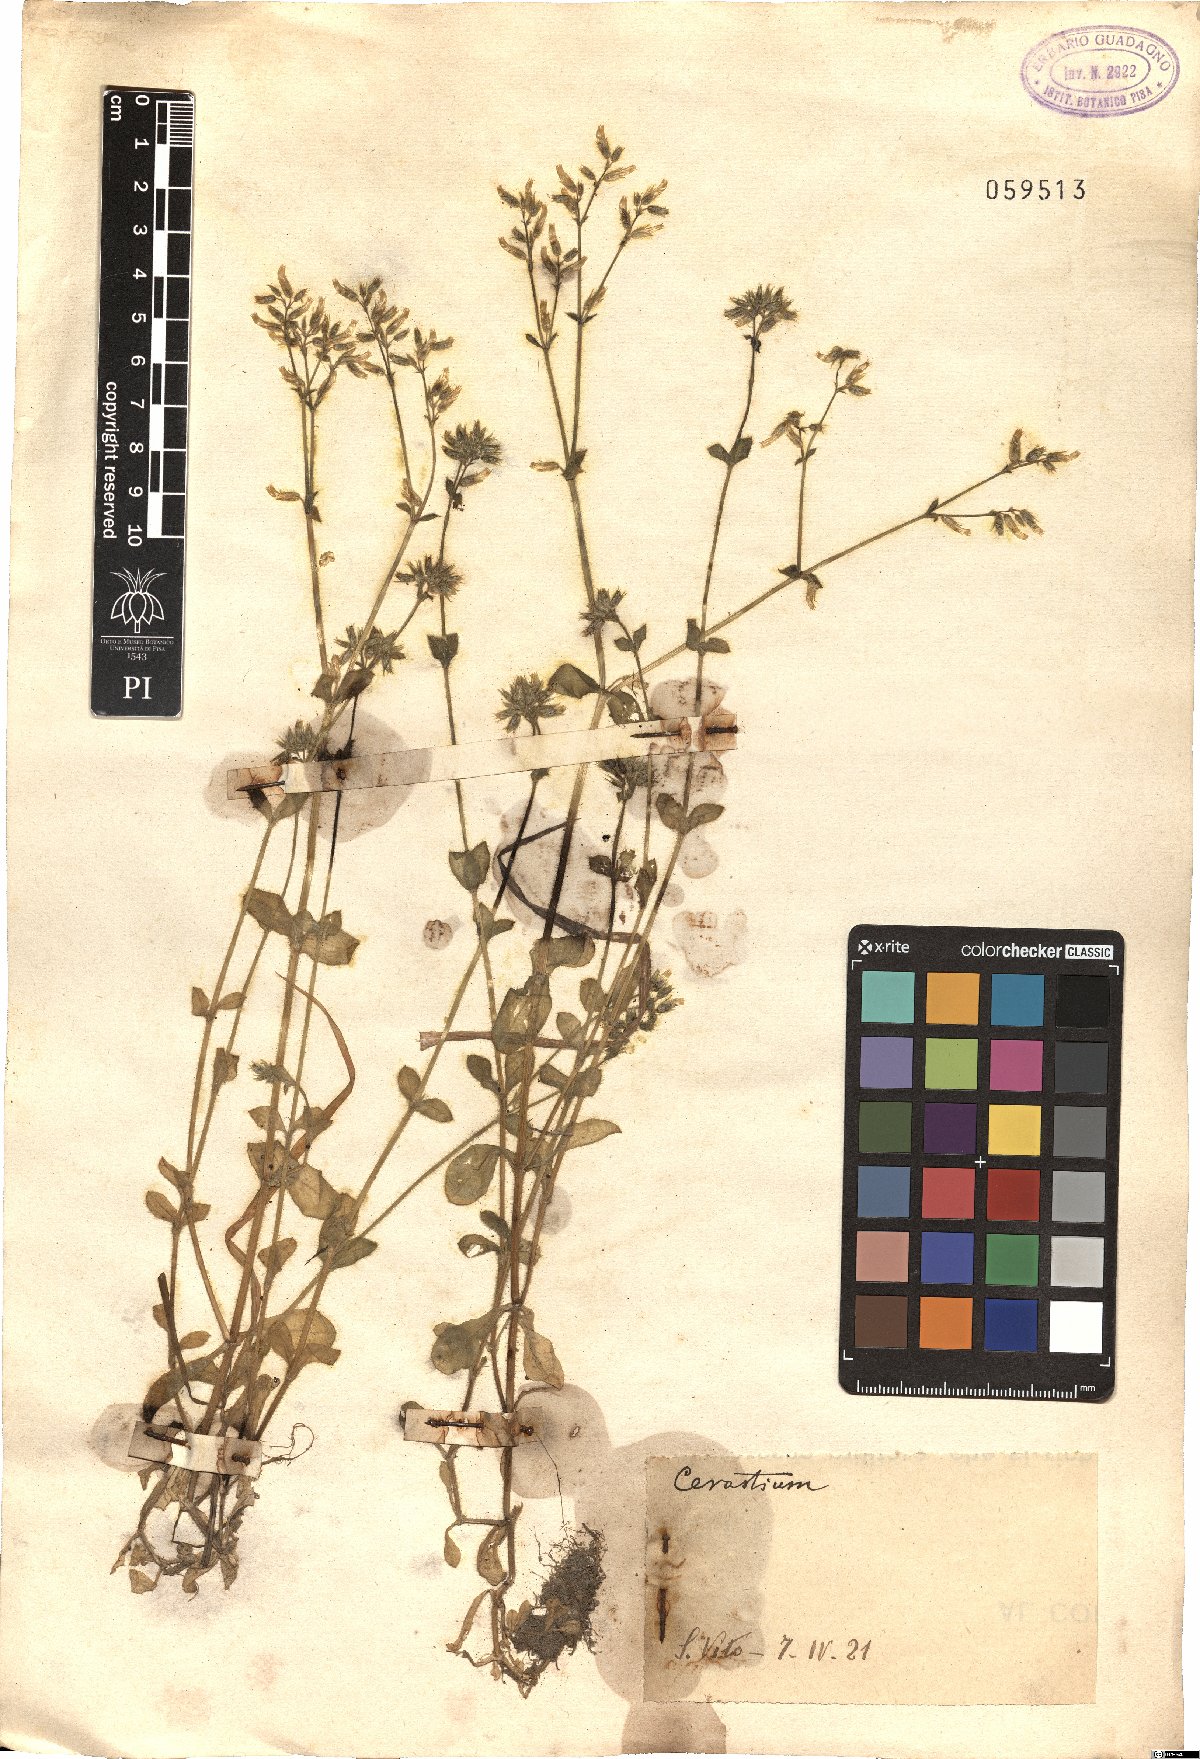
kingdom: Plantae
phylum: Tracheophyta
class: Magnoliopsida
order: Caryophyllales
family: Caryophyllaceae
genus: Cerastium
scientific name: Cerastium
